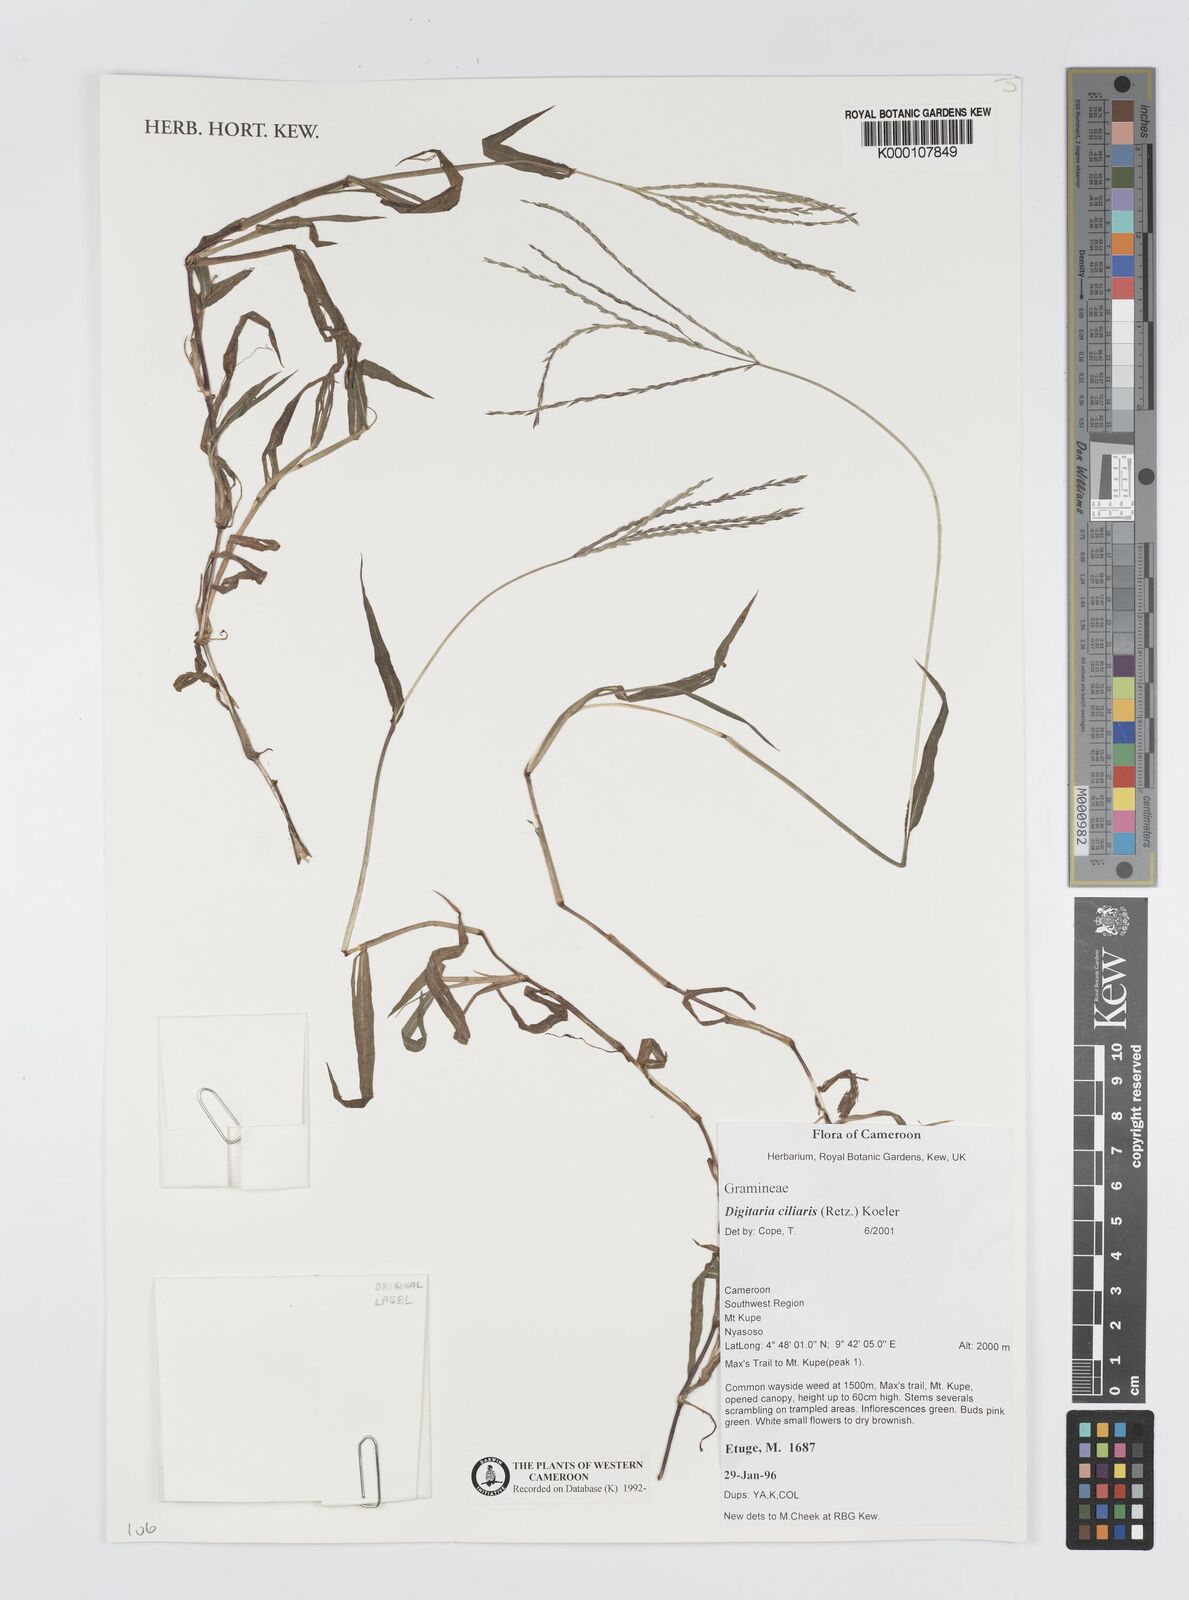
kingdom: Plantae
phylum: Tracheophyta
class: Liliopsida
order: Poales
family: Poaceae
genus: Digitaria
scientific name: Digitaria ciliaris
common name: Tropical finger-grass
